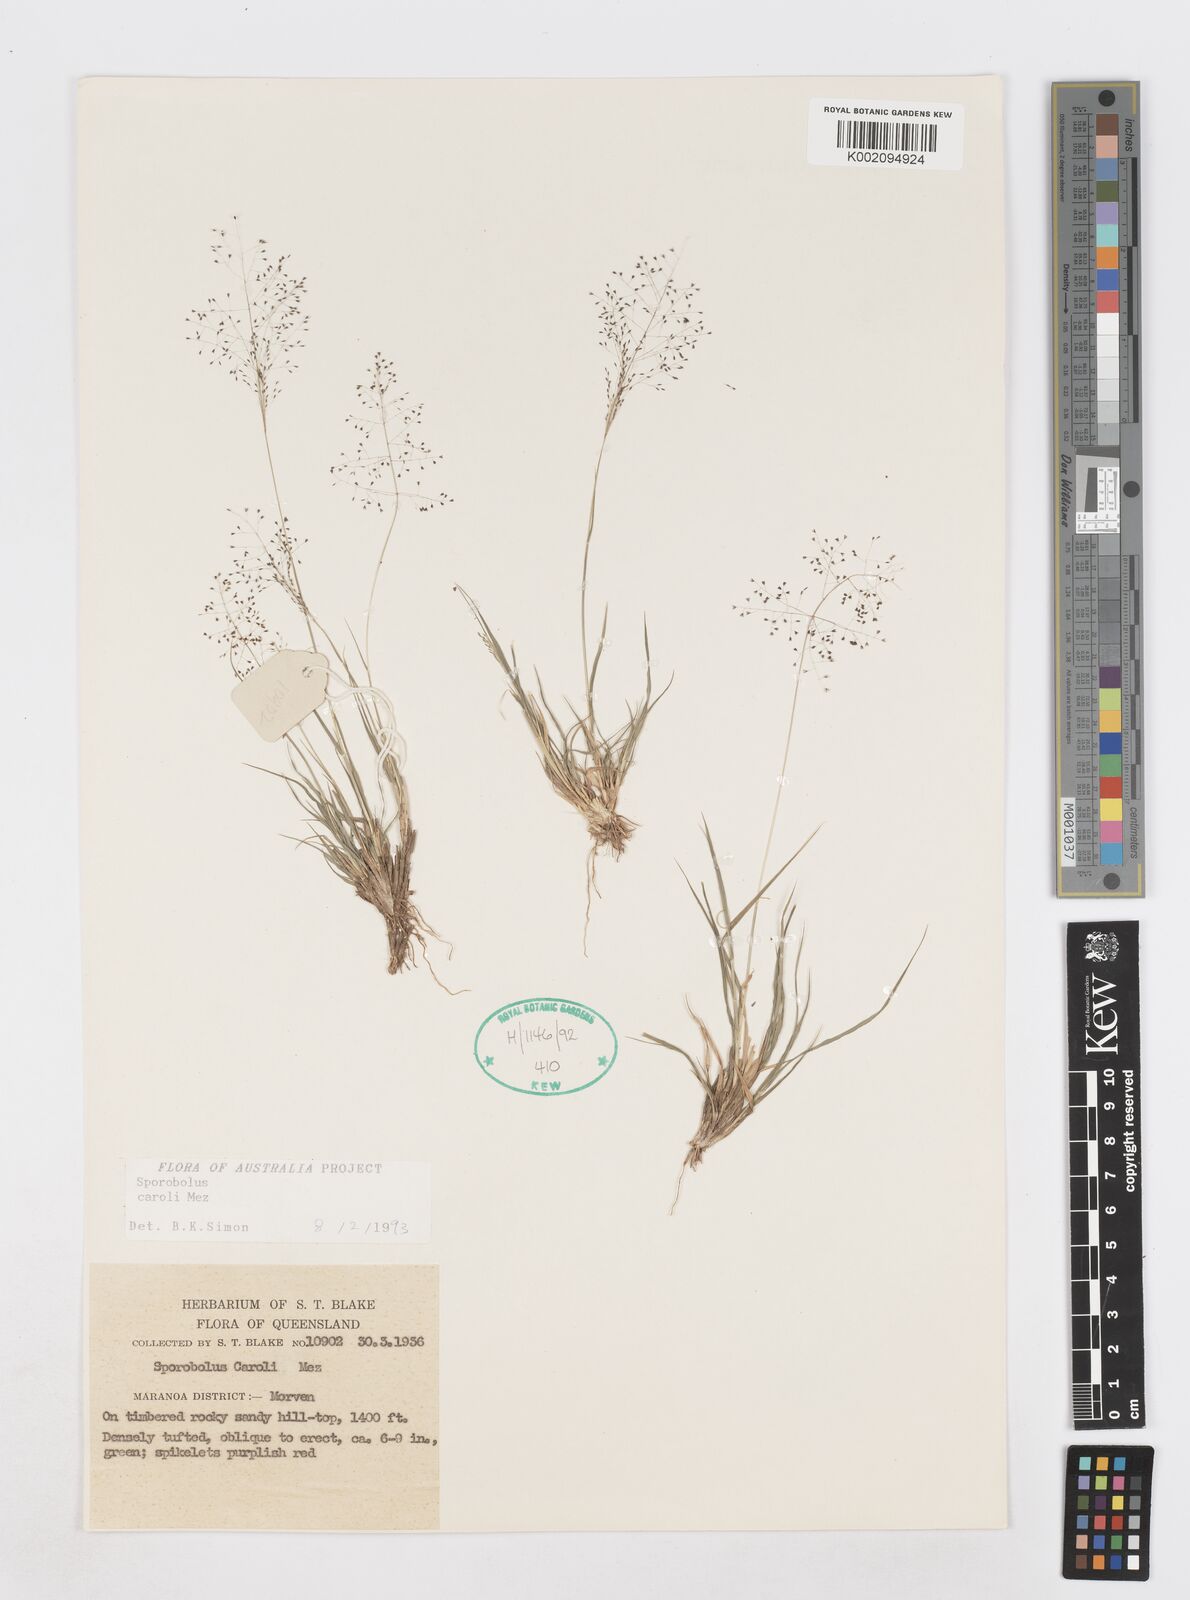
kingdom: Plantae
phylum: Tracheophyta
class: Liliopsida
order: Poales
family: Poaceae
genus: Sporobolus
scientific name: Sporobolus caroli
